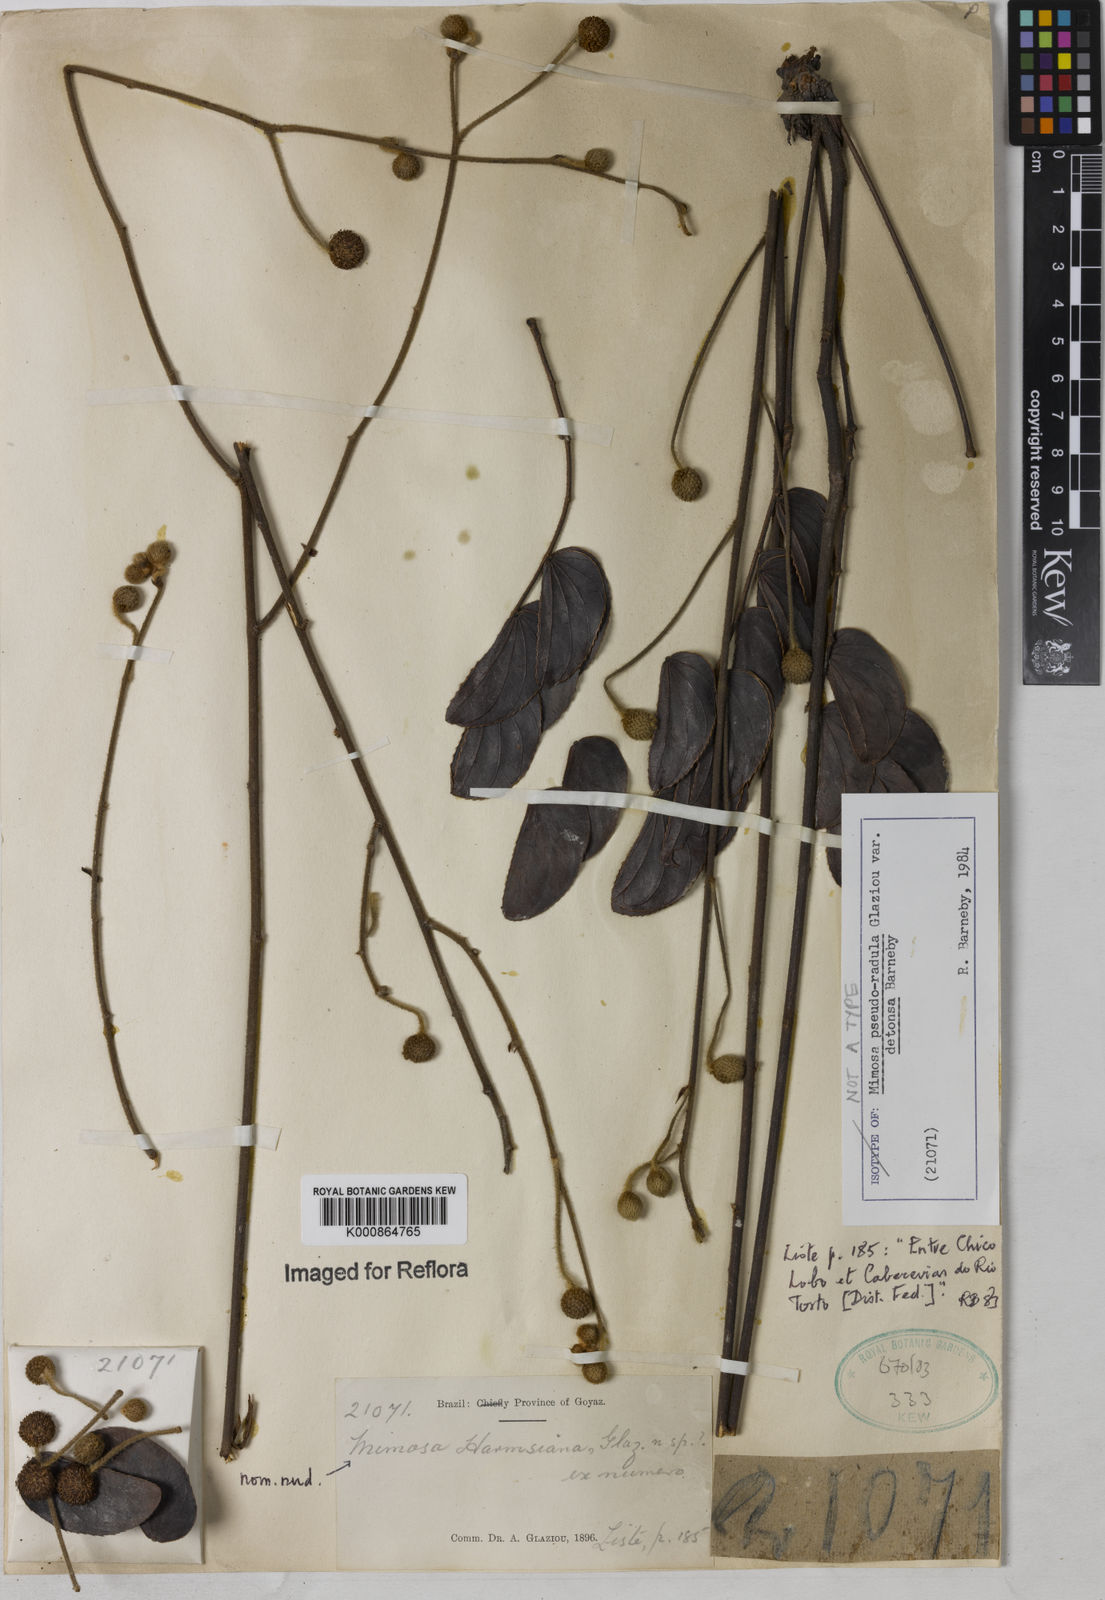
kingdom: Plantae
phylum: Tracheophyta
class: Magnoliopsida
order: Fabales
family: Fabaceae
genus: Mimosa
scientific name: Mimosa pseudoradula
